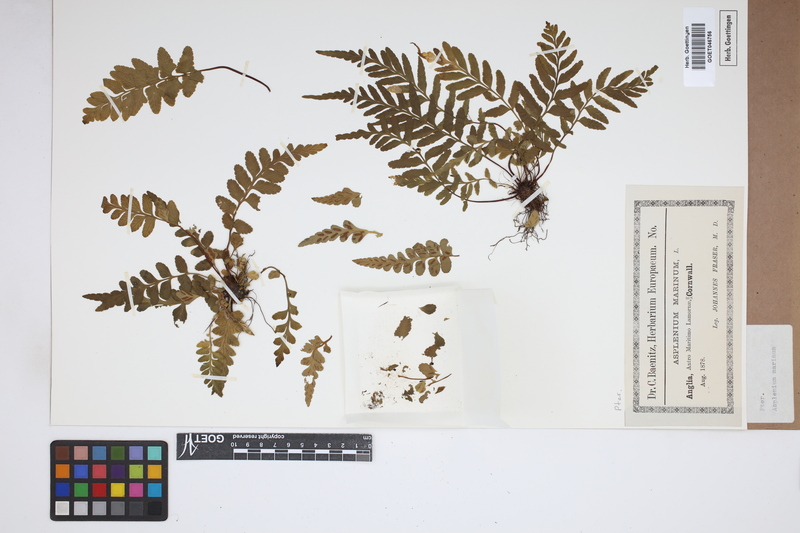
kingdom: Plantae
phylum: Tracheophyta
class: Polypodiopsida
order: Polypodiales
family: Aspleniaceae
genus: Asplenium
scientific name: Asplenium marinum
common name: Sea spleenwort
